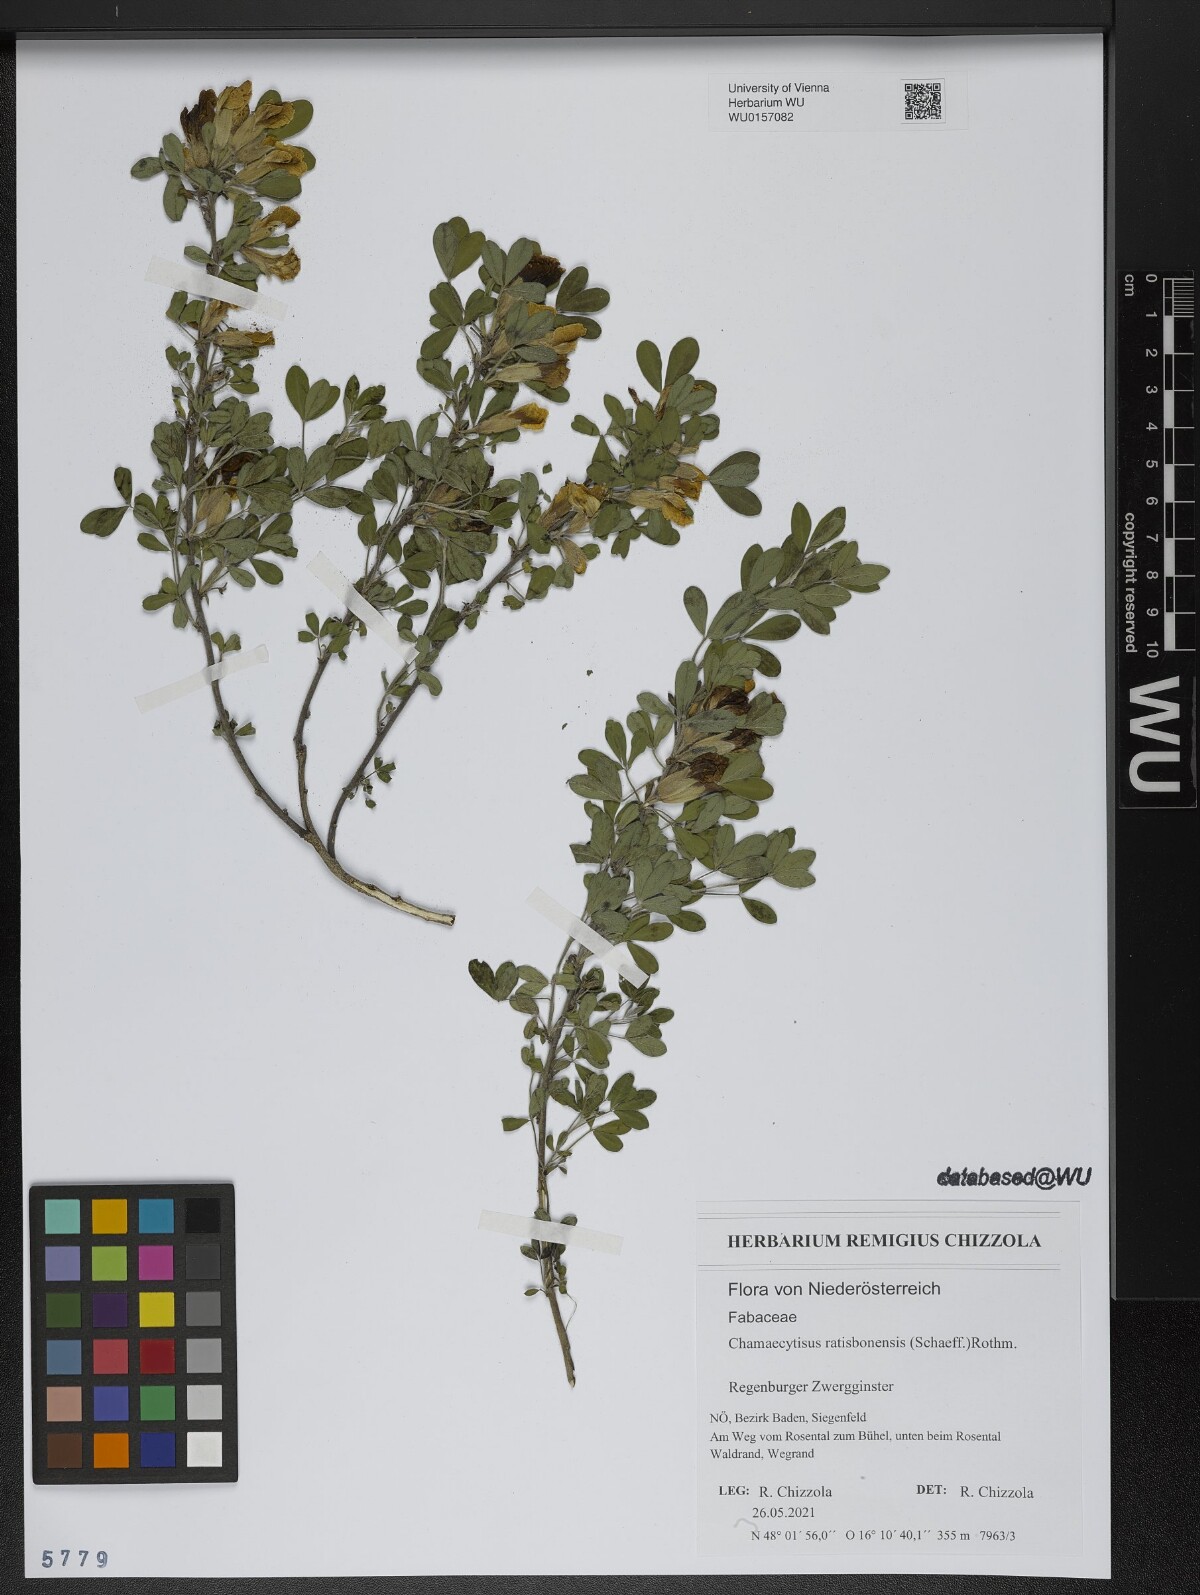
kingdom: Plantae
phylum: Tracheophyta
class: Magnoliopsida
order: Fabales
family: Fabaceae
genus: Chamaecytisus
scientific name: Chamaecytisus ratisbonensis
